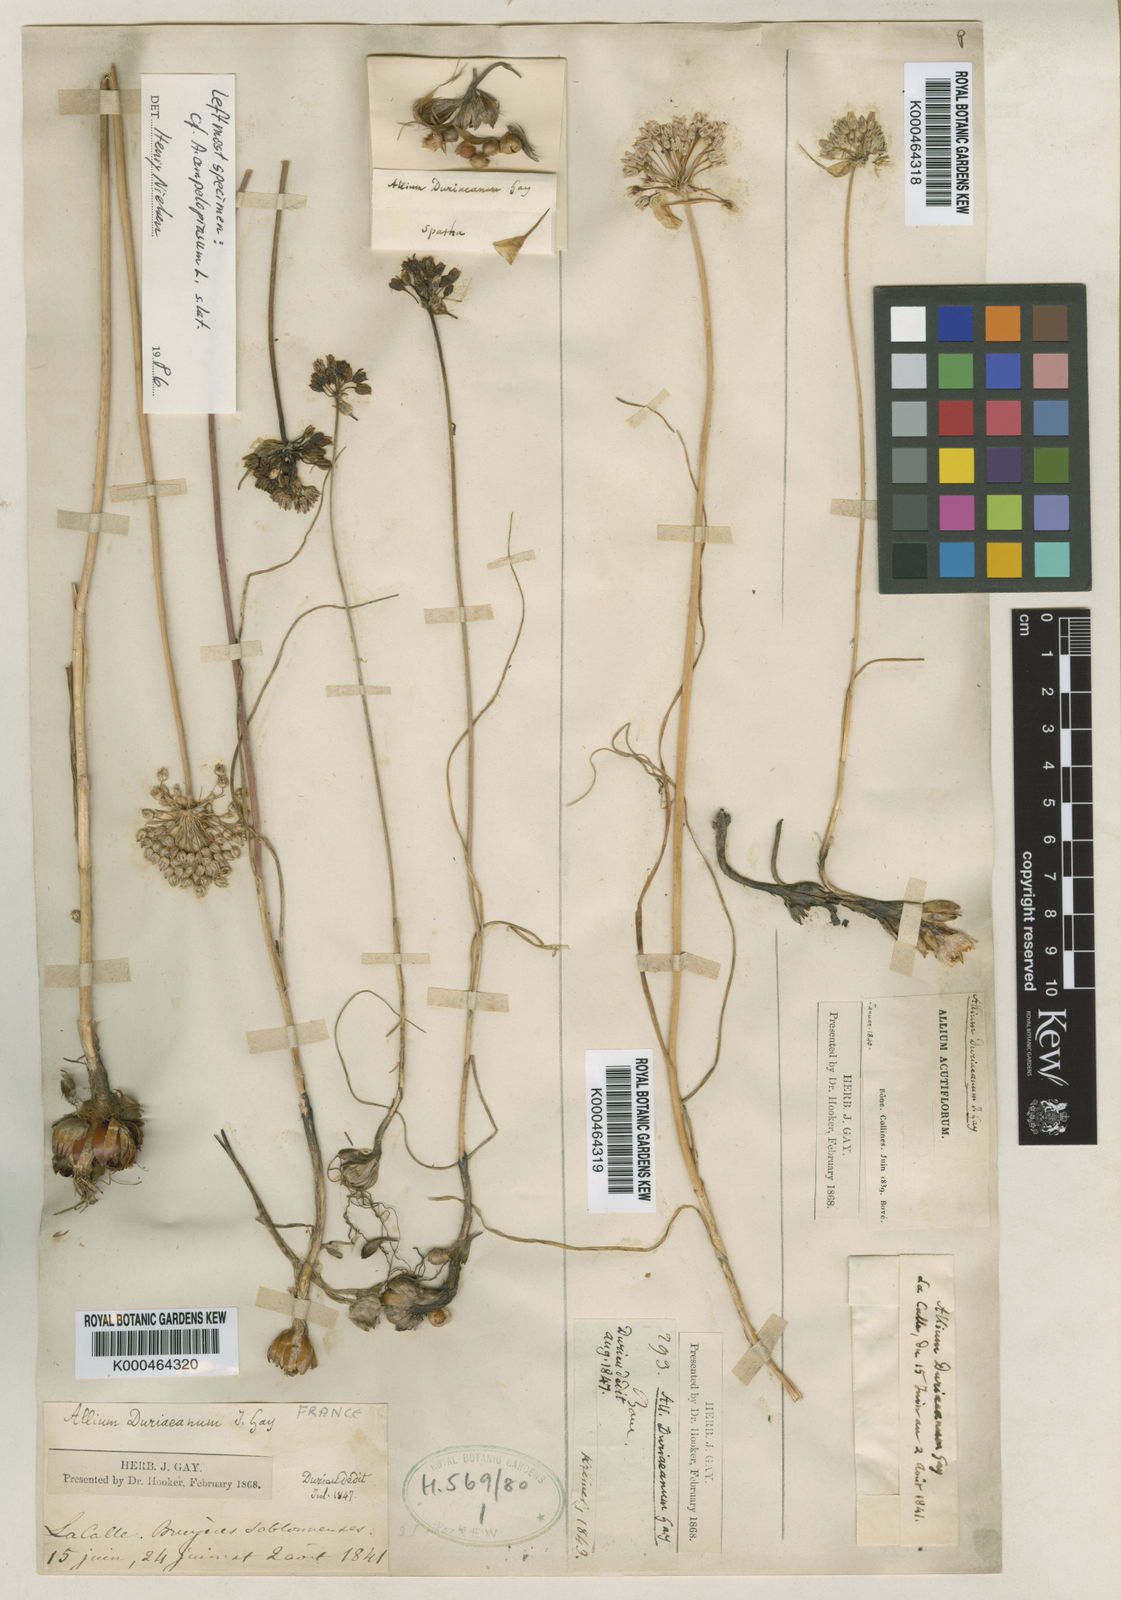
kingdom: Plantae
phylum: Tracheophyta
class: Liliopsida
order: Asparagales
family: Amaryllidaceae
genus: Allium
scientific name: Allium baeticum
